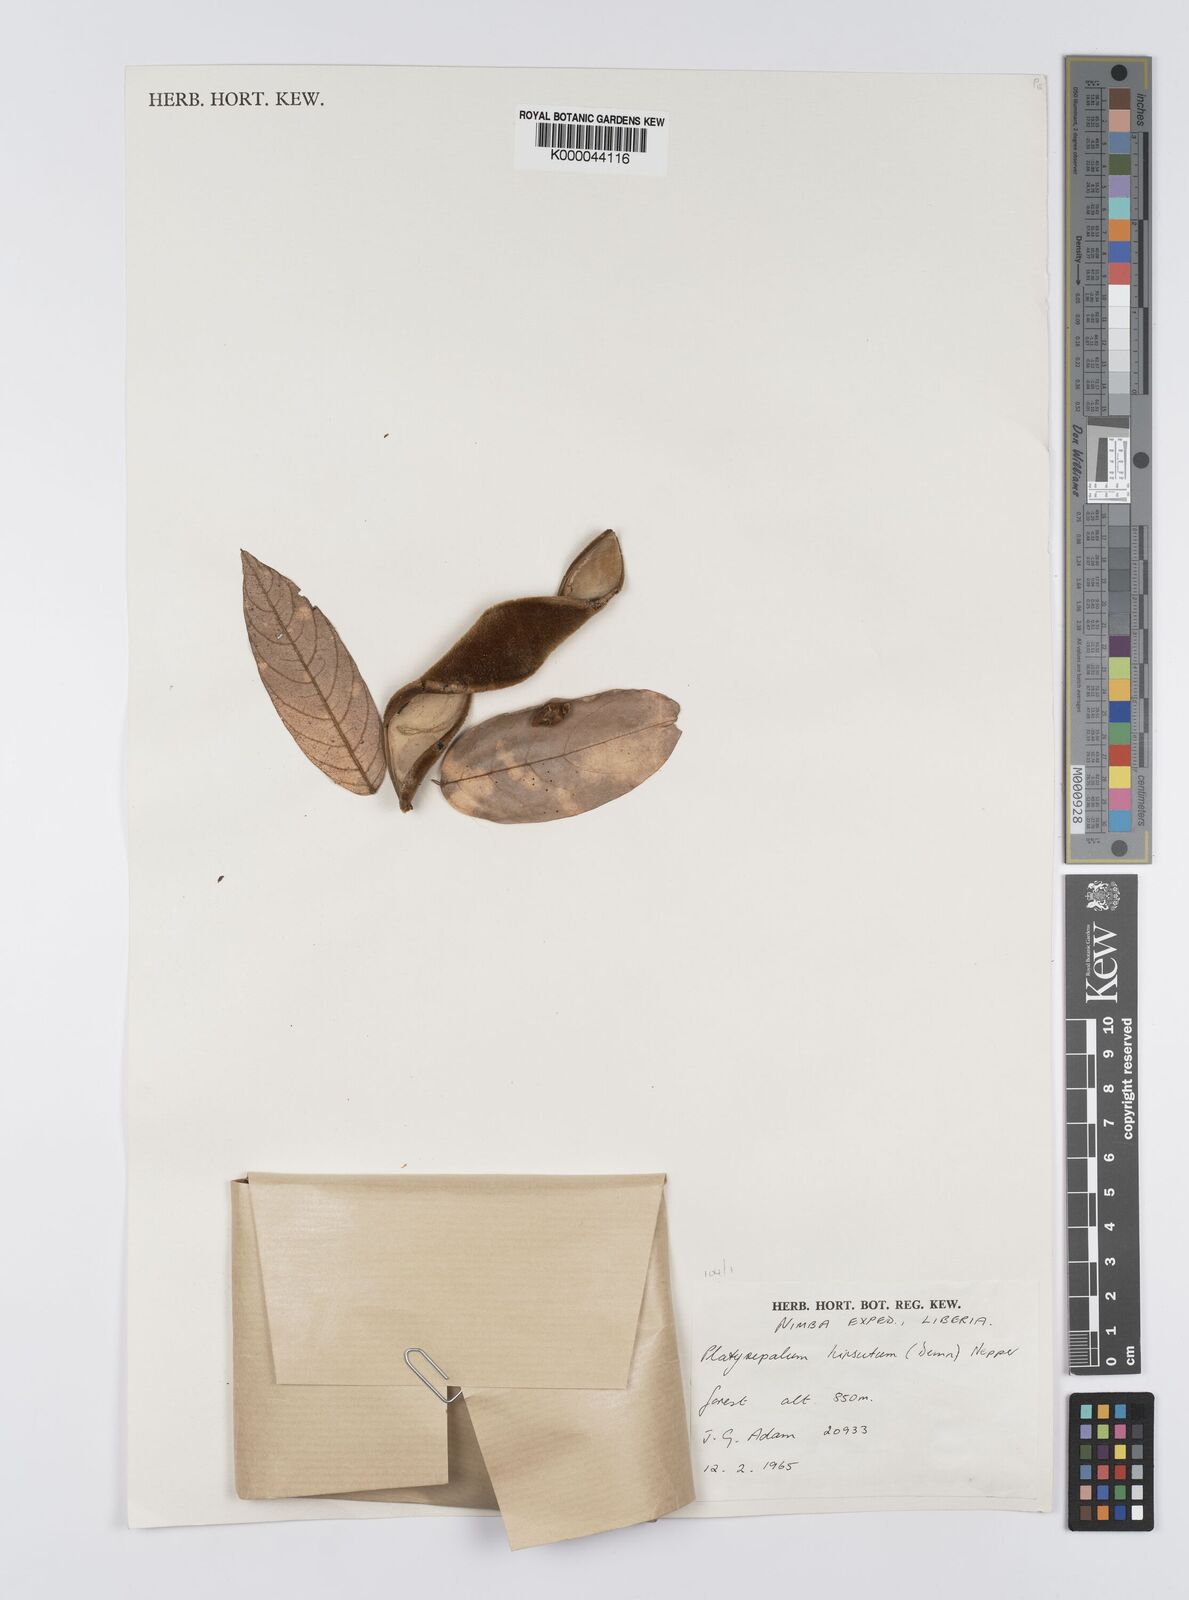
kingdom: Plantae
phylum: Tracheophyta
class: Magnoliopsida
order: Fabales
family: Fabaceae
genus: Platysepalum
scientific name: Platysepalum hirsutum
